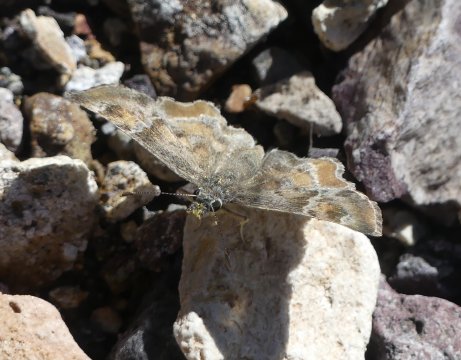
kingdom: Animalia
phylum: Arthropoda
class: Insecta
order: Lepidoptera
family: Hesperiidae
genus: Systasea
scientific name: Systasea zampa
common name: Arizona Powdered-Skipper
